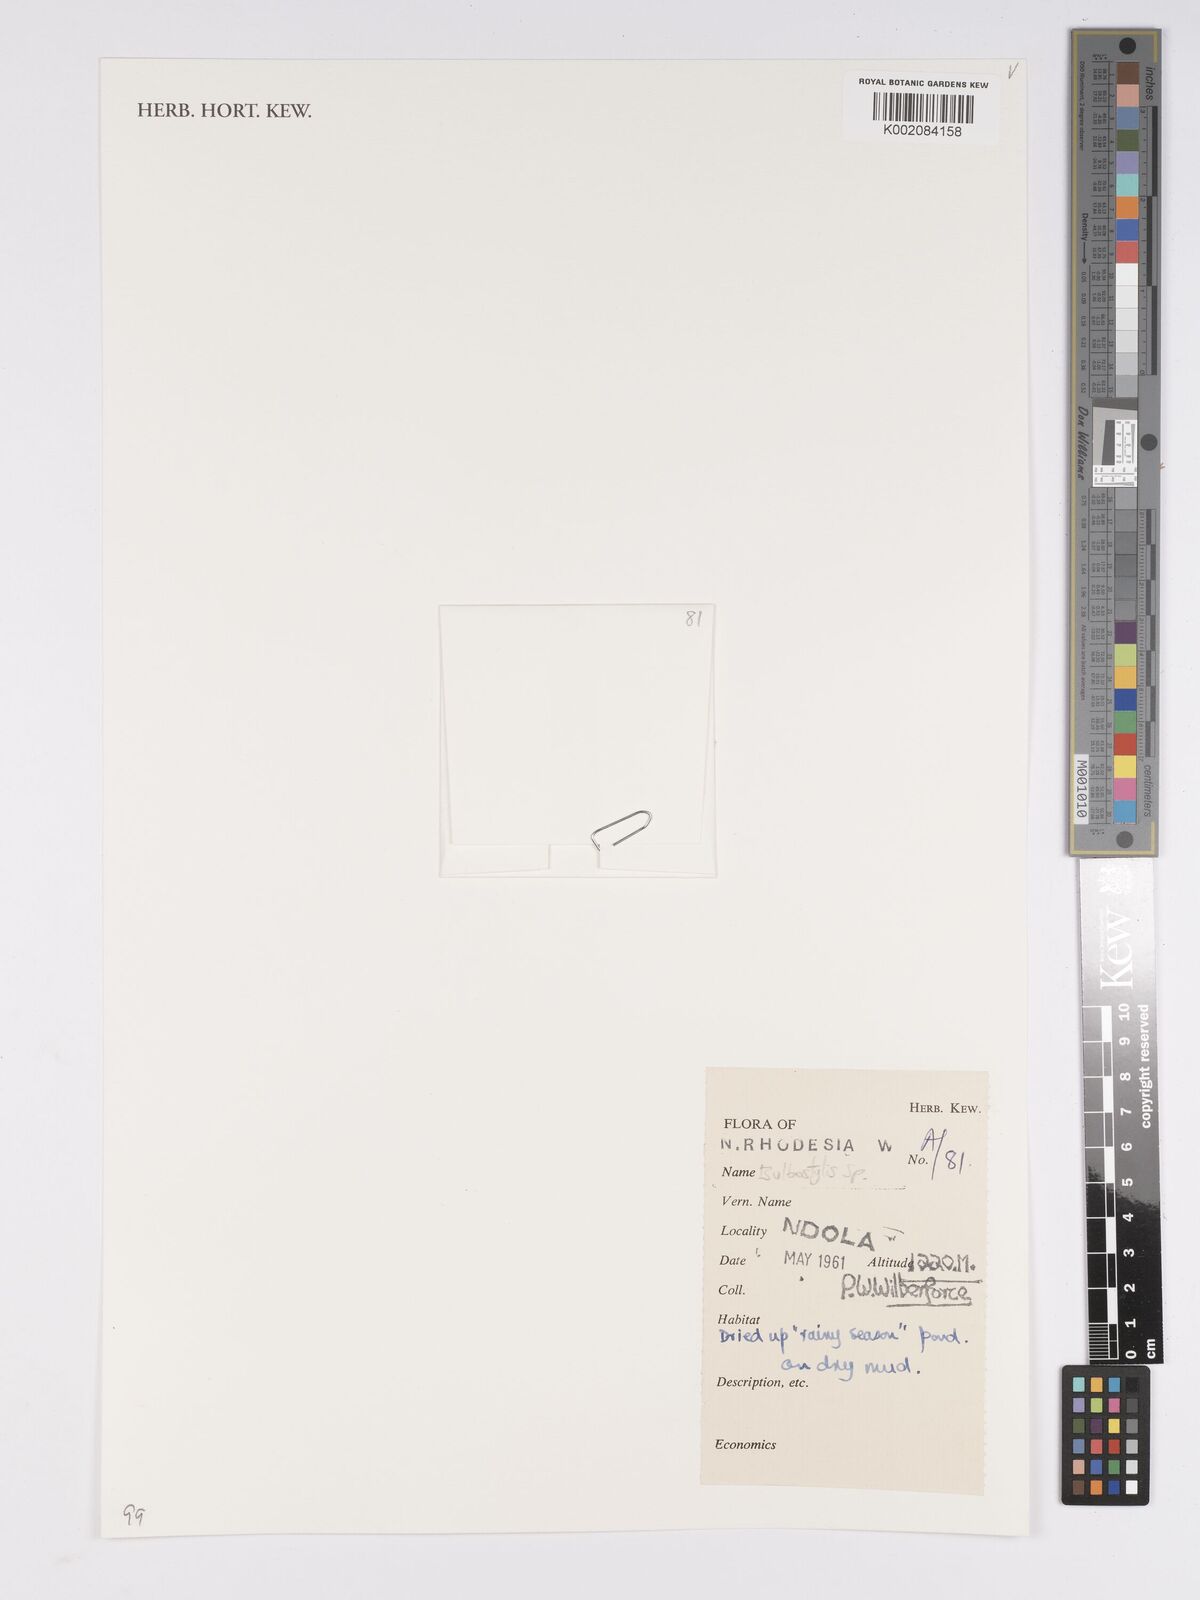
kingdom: Plantae
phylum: Tracheophyta
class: Liliopsida
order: Poales
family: Cyperaceae
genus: Bulbostylis
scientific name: Bulbostylis
